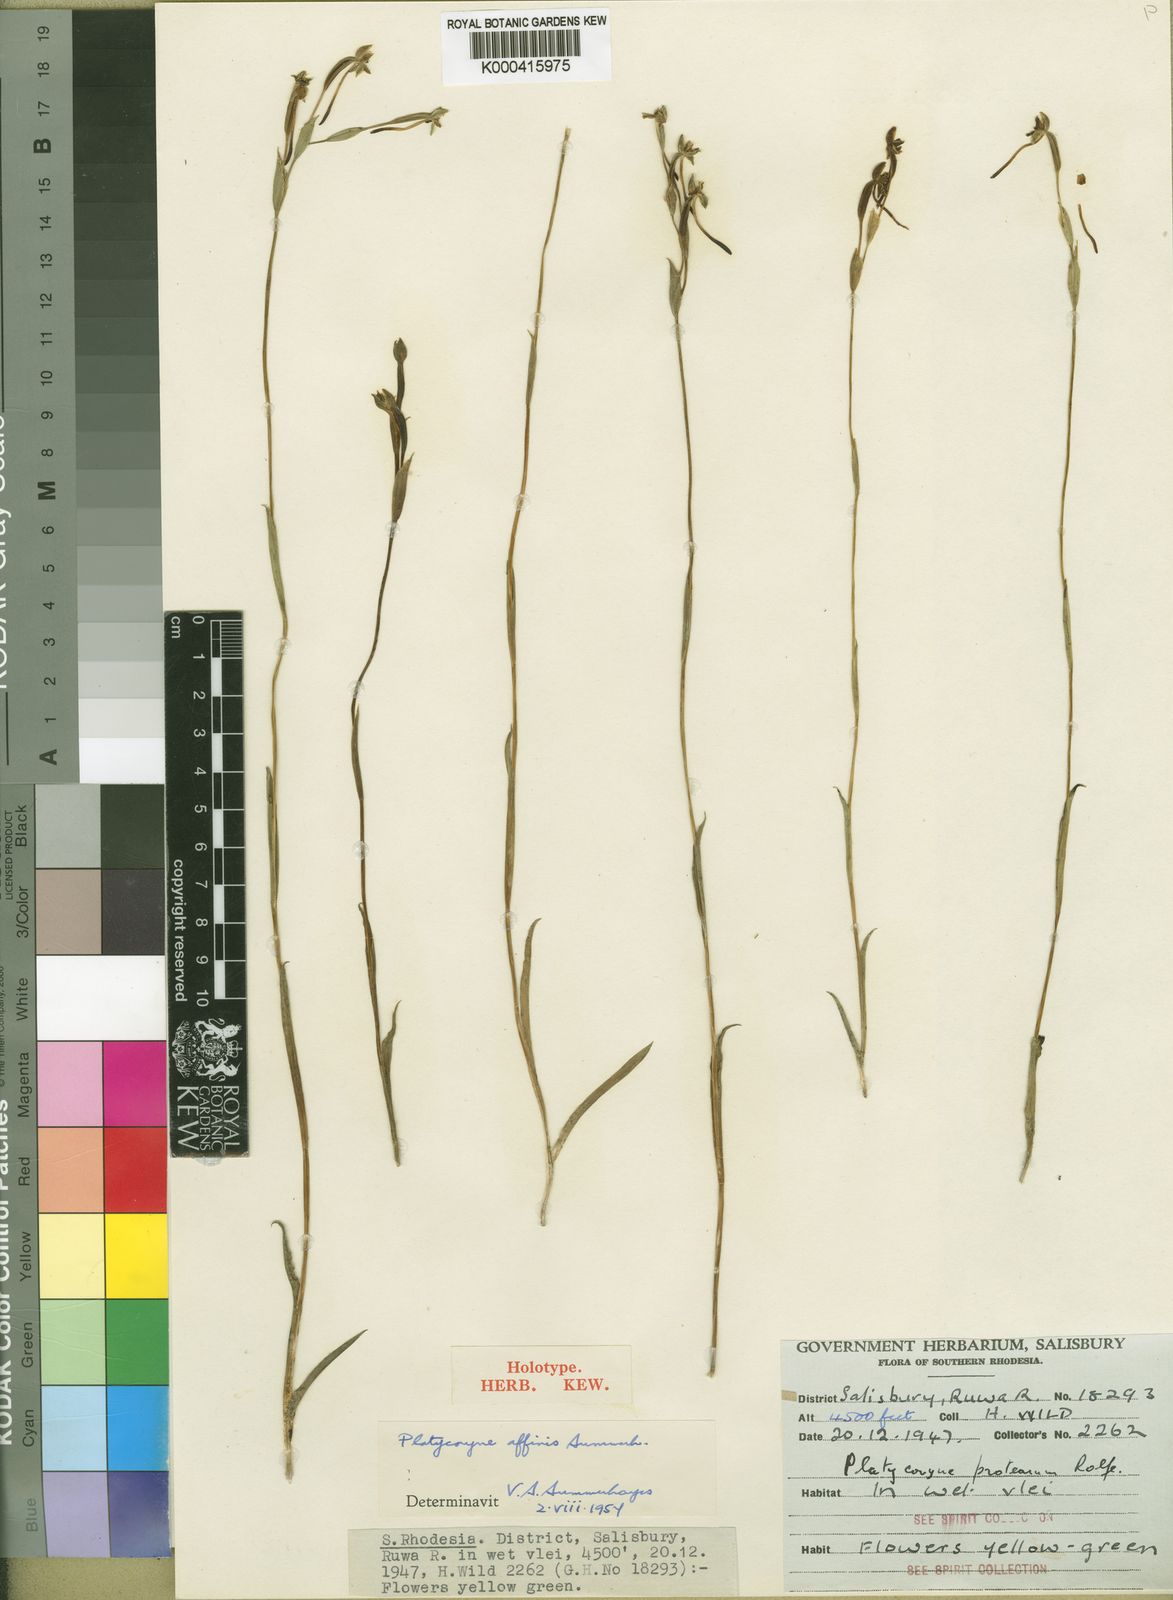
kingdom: Plantae
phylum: Tracheophyta
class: Liliopsida
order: Asparagales
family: Orchidaceae
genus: Platycoryne
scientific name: Platycoryne affinis
